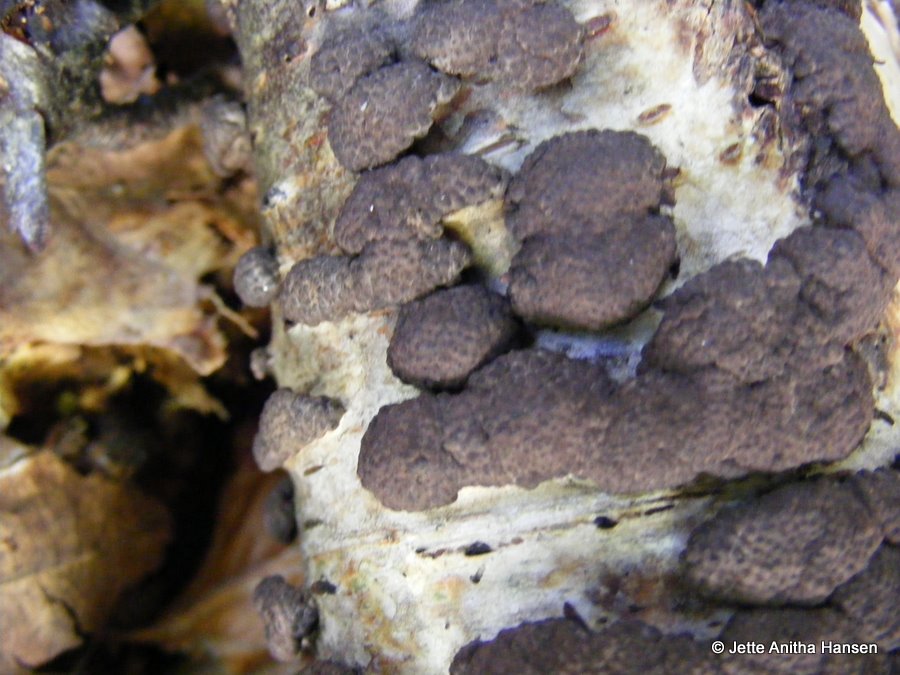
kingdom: Fungi
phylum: Ascomycota
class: Sordariomycetes
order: Xylariales
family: Hypoxylaceae
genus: Jackrogersella
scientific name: Jackrogersella multiformis
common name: foranderlig kulbær
